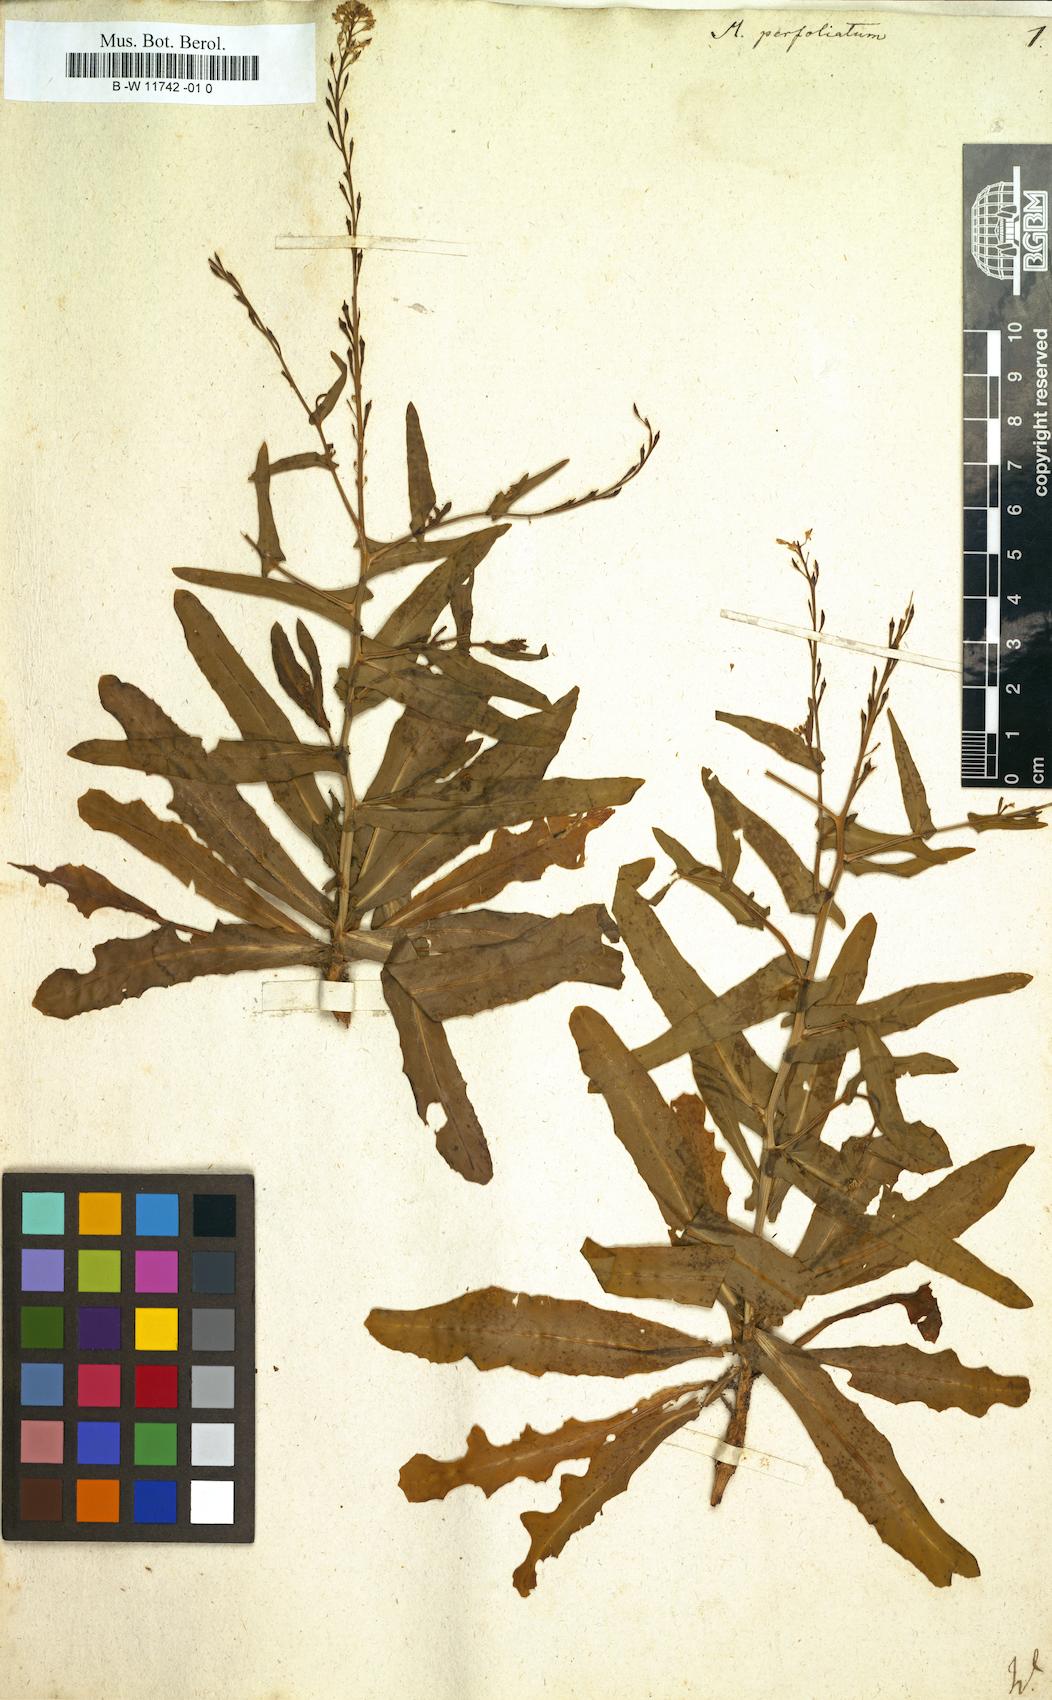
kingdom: Plantae
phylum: Tracheophyta
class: Magnoliopsida
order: Brassicales
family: Brassicaceae
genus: Myagrum
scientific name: Myagrum perfoliatum
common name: Mitre cress
